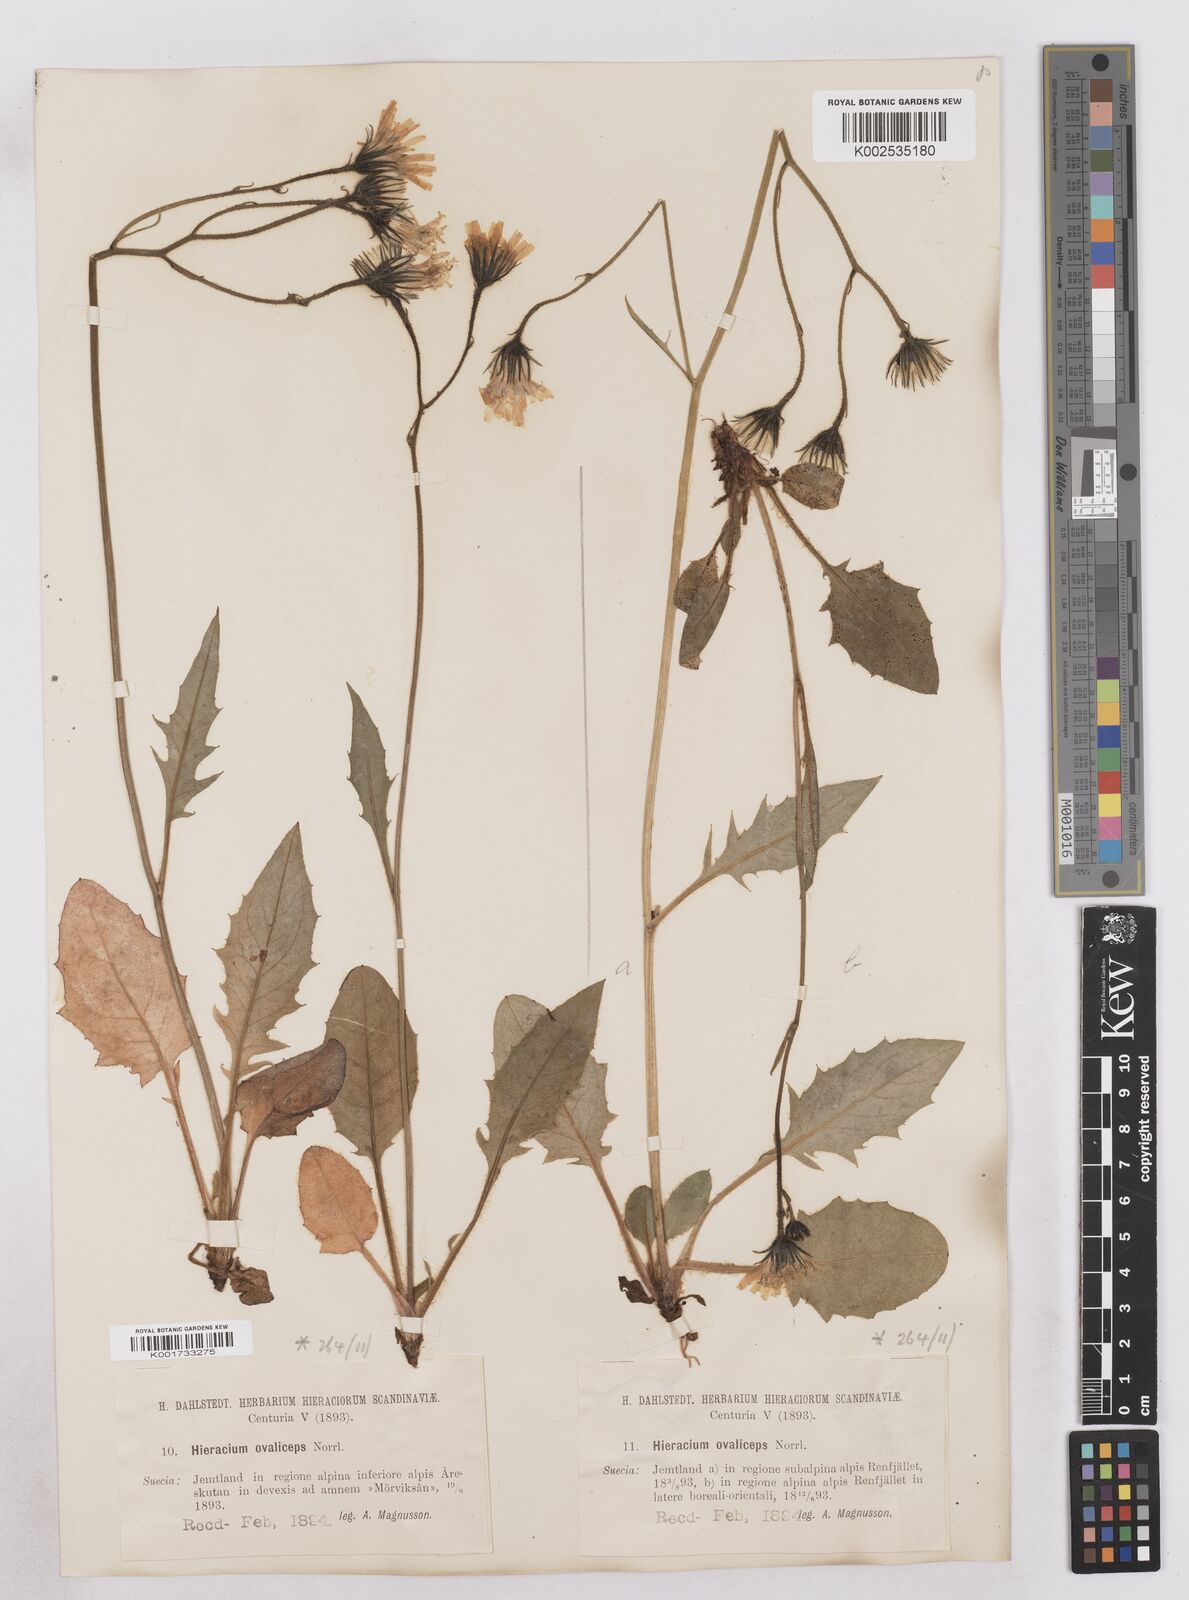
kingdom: Plantae
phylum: Tracheophyta
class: Magnoliopsida
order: Asterales
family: Asteraceae
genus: Hieracium
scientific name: Hieracium ovaliceps
